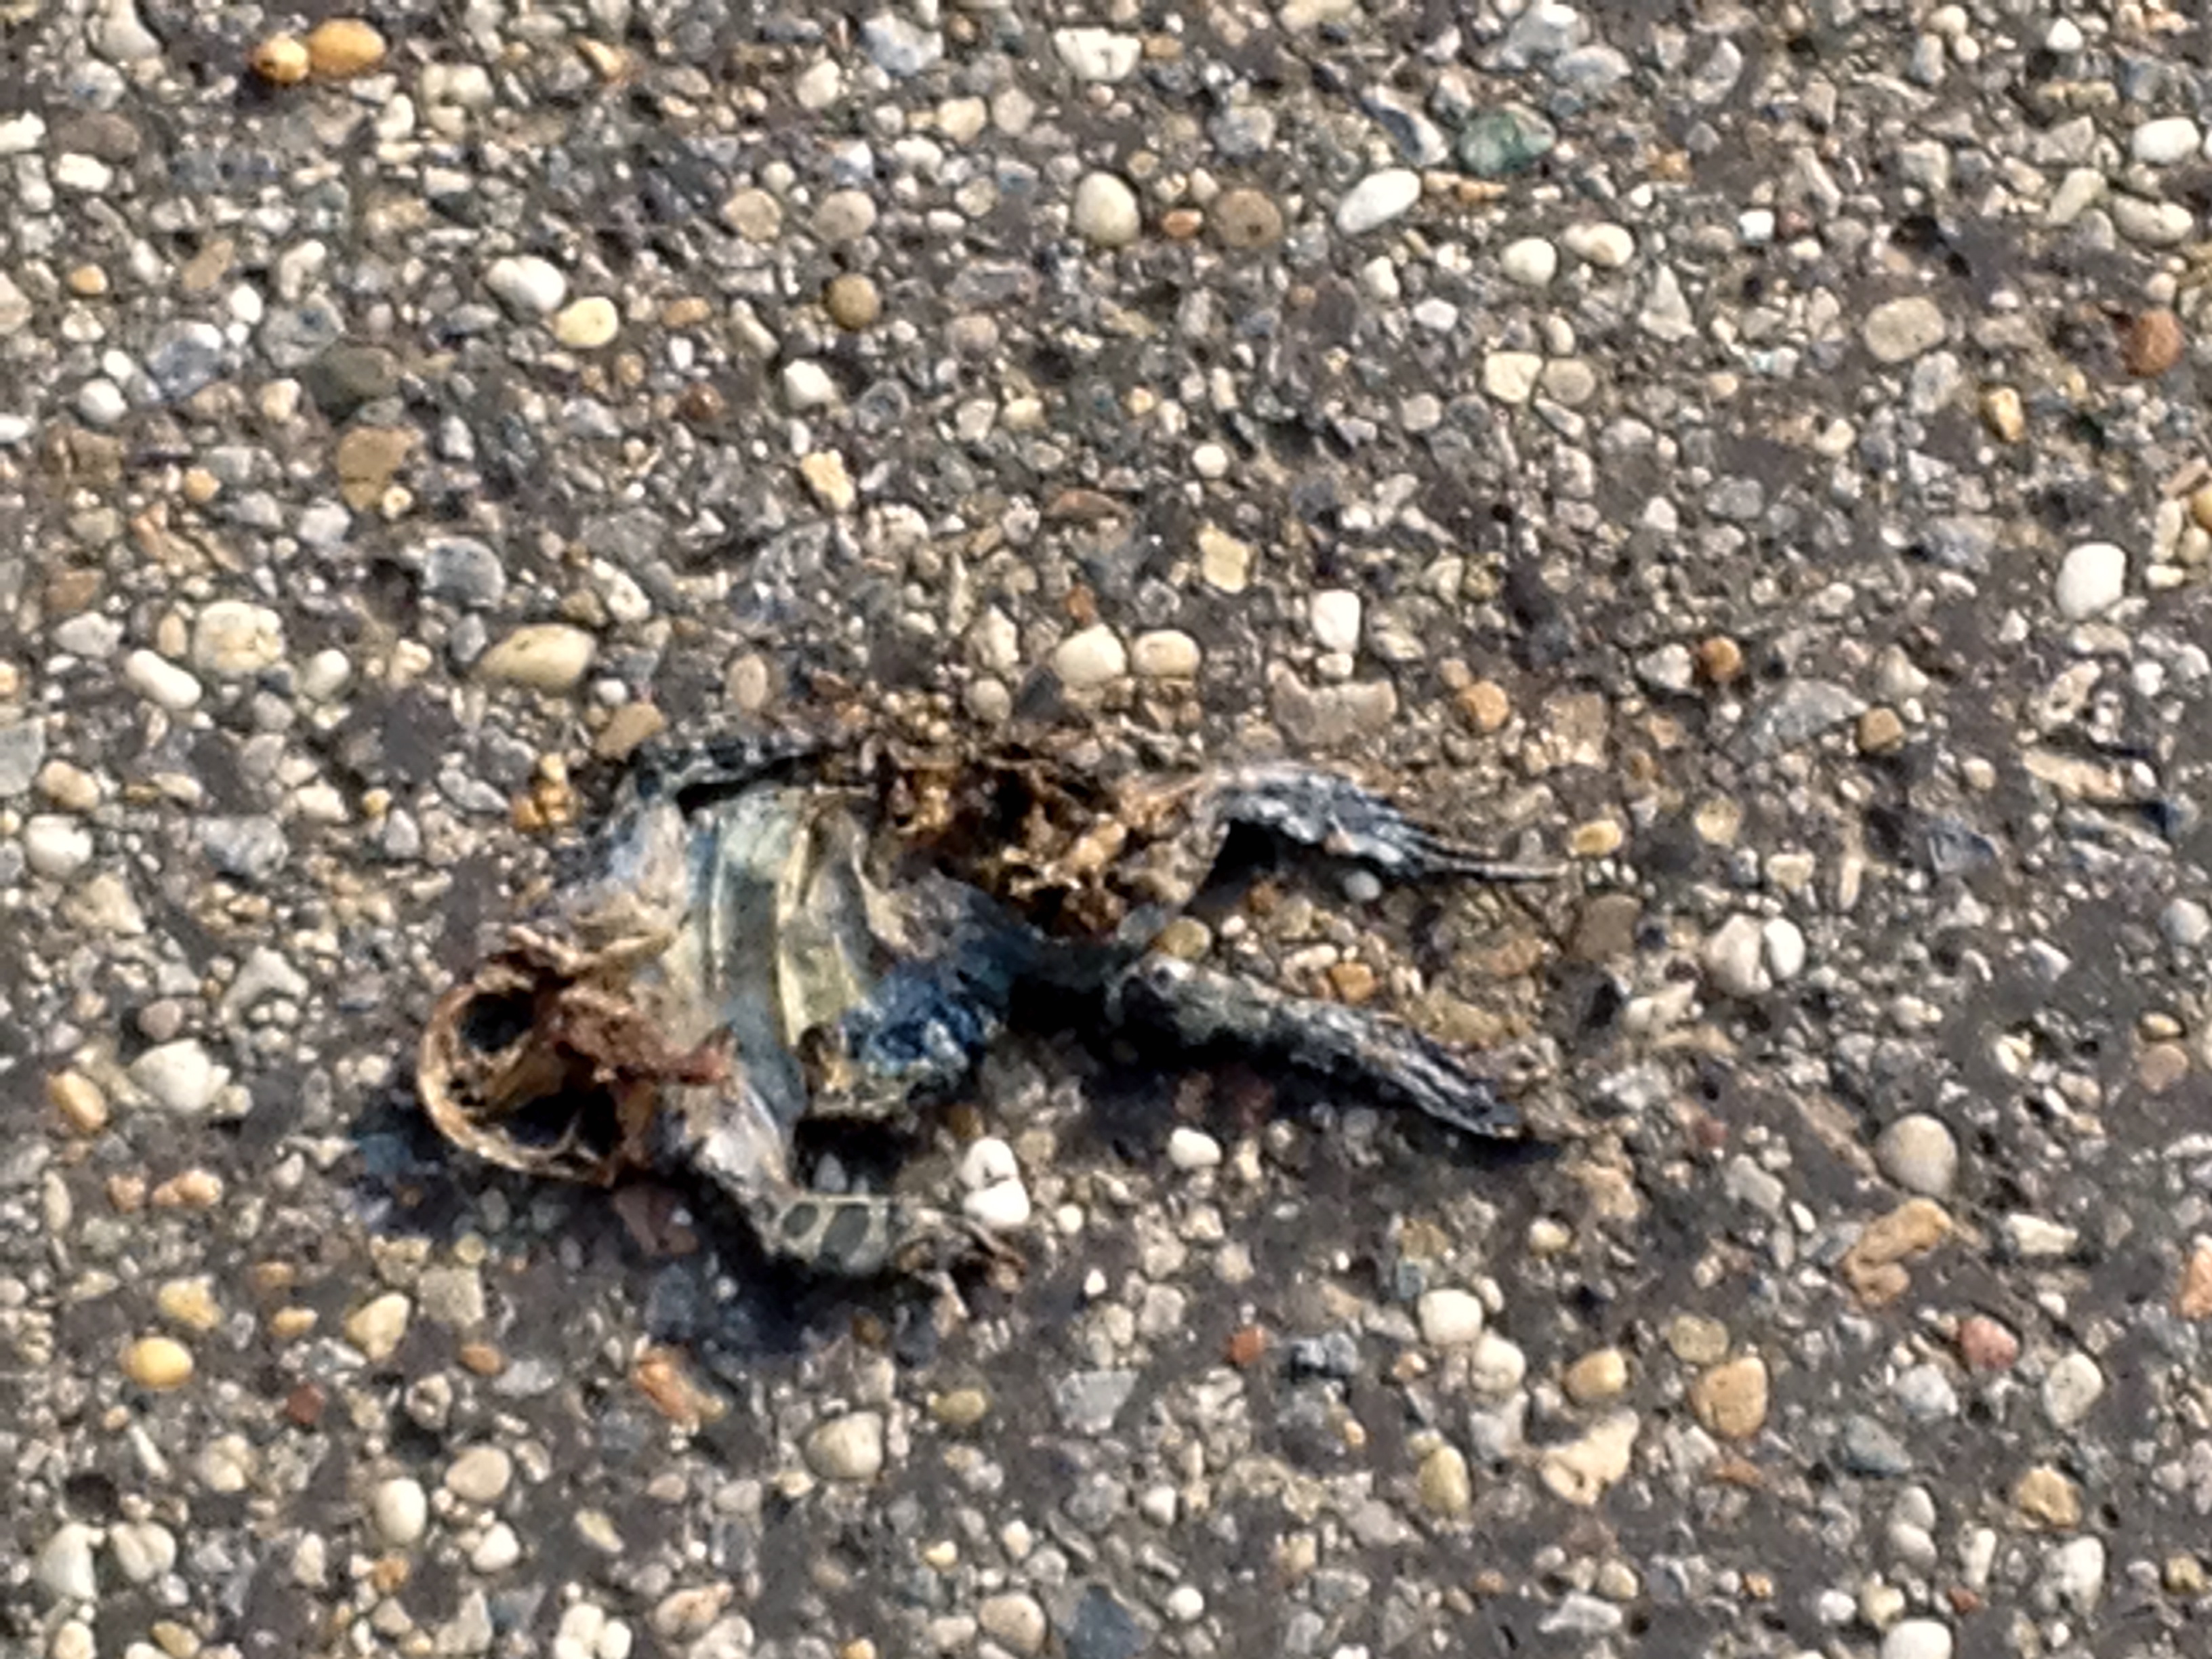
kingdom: Animalia
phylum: Chordata
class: Amphibia
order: Anura
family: Bufonidae
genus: Bufotes
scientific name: Bufotes viridis
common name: European green toad
